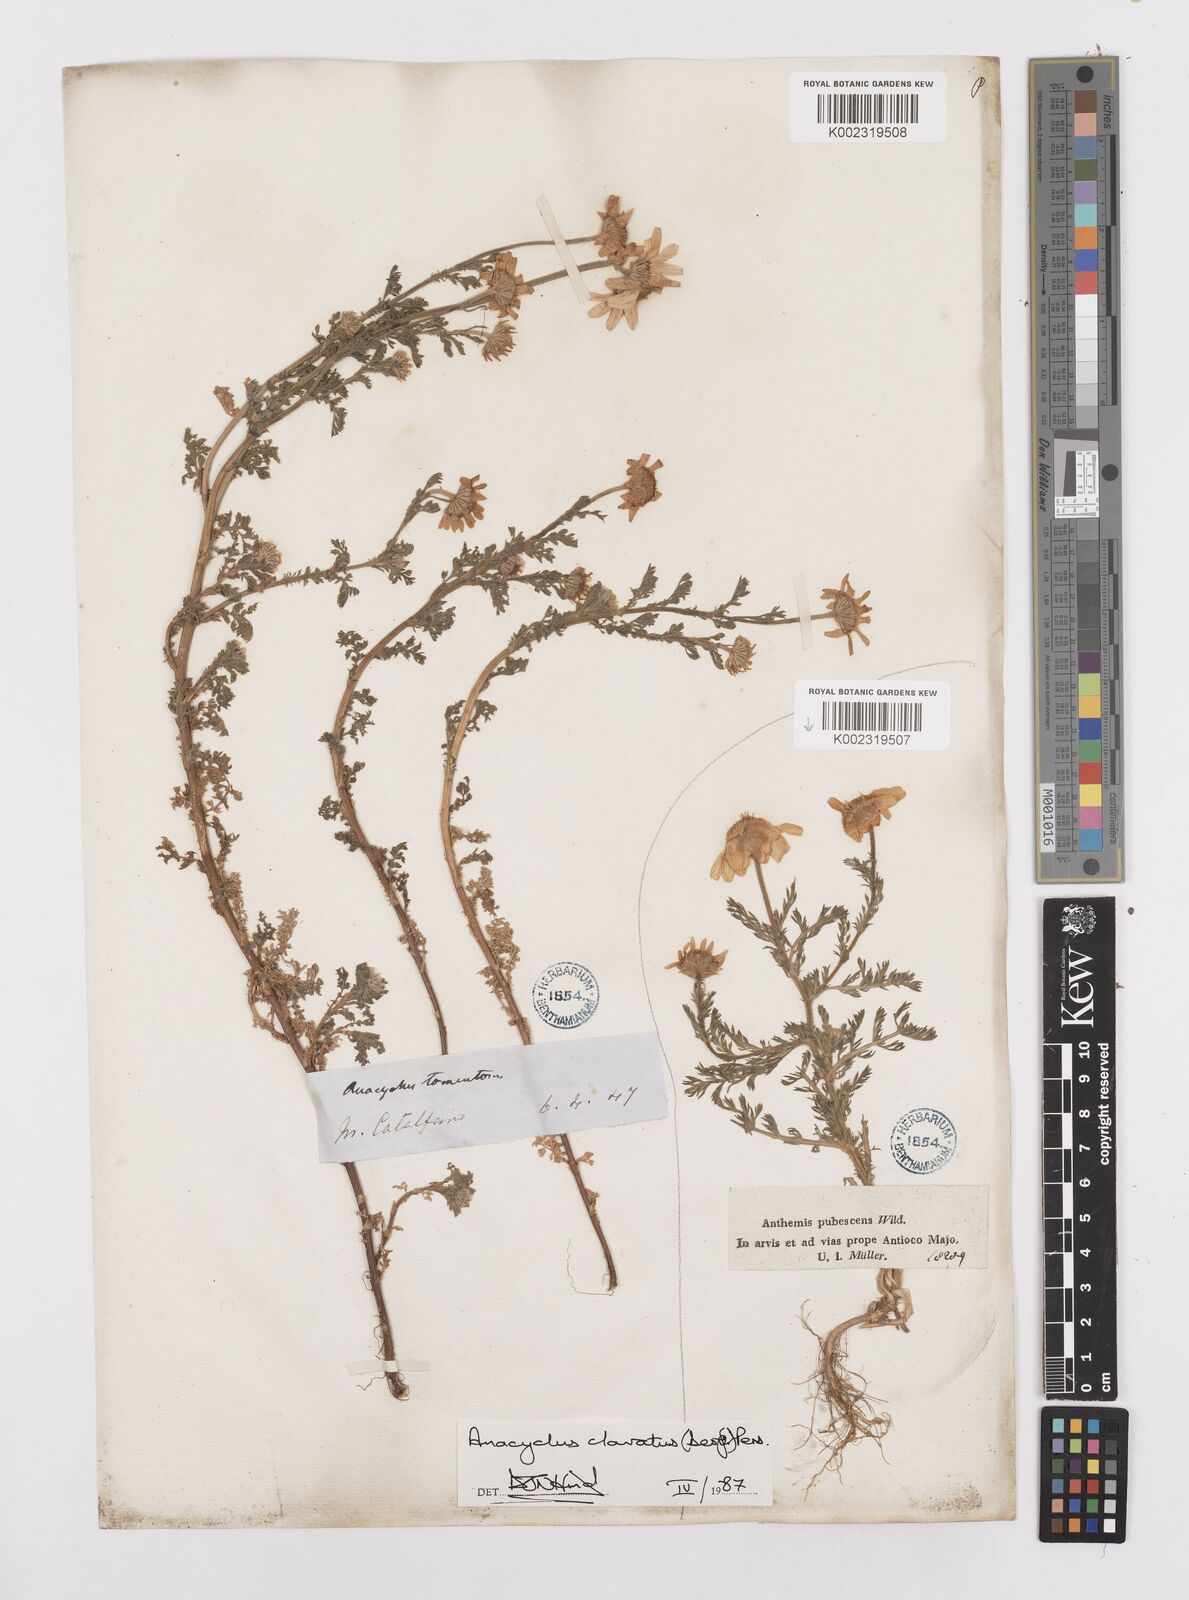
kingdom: Plantae
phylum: Tracheophyta
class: Magnoliopsida
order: Asterales
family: Asteraceae
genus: Anacyclus
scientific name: Anacyclus clavatus
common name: Whitebuttons
